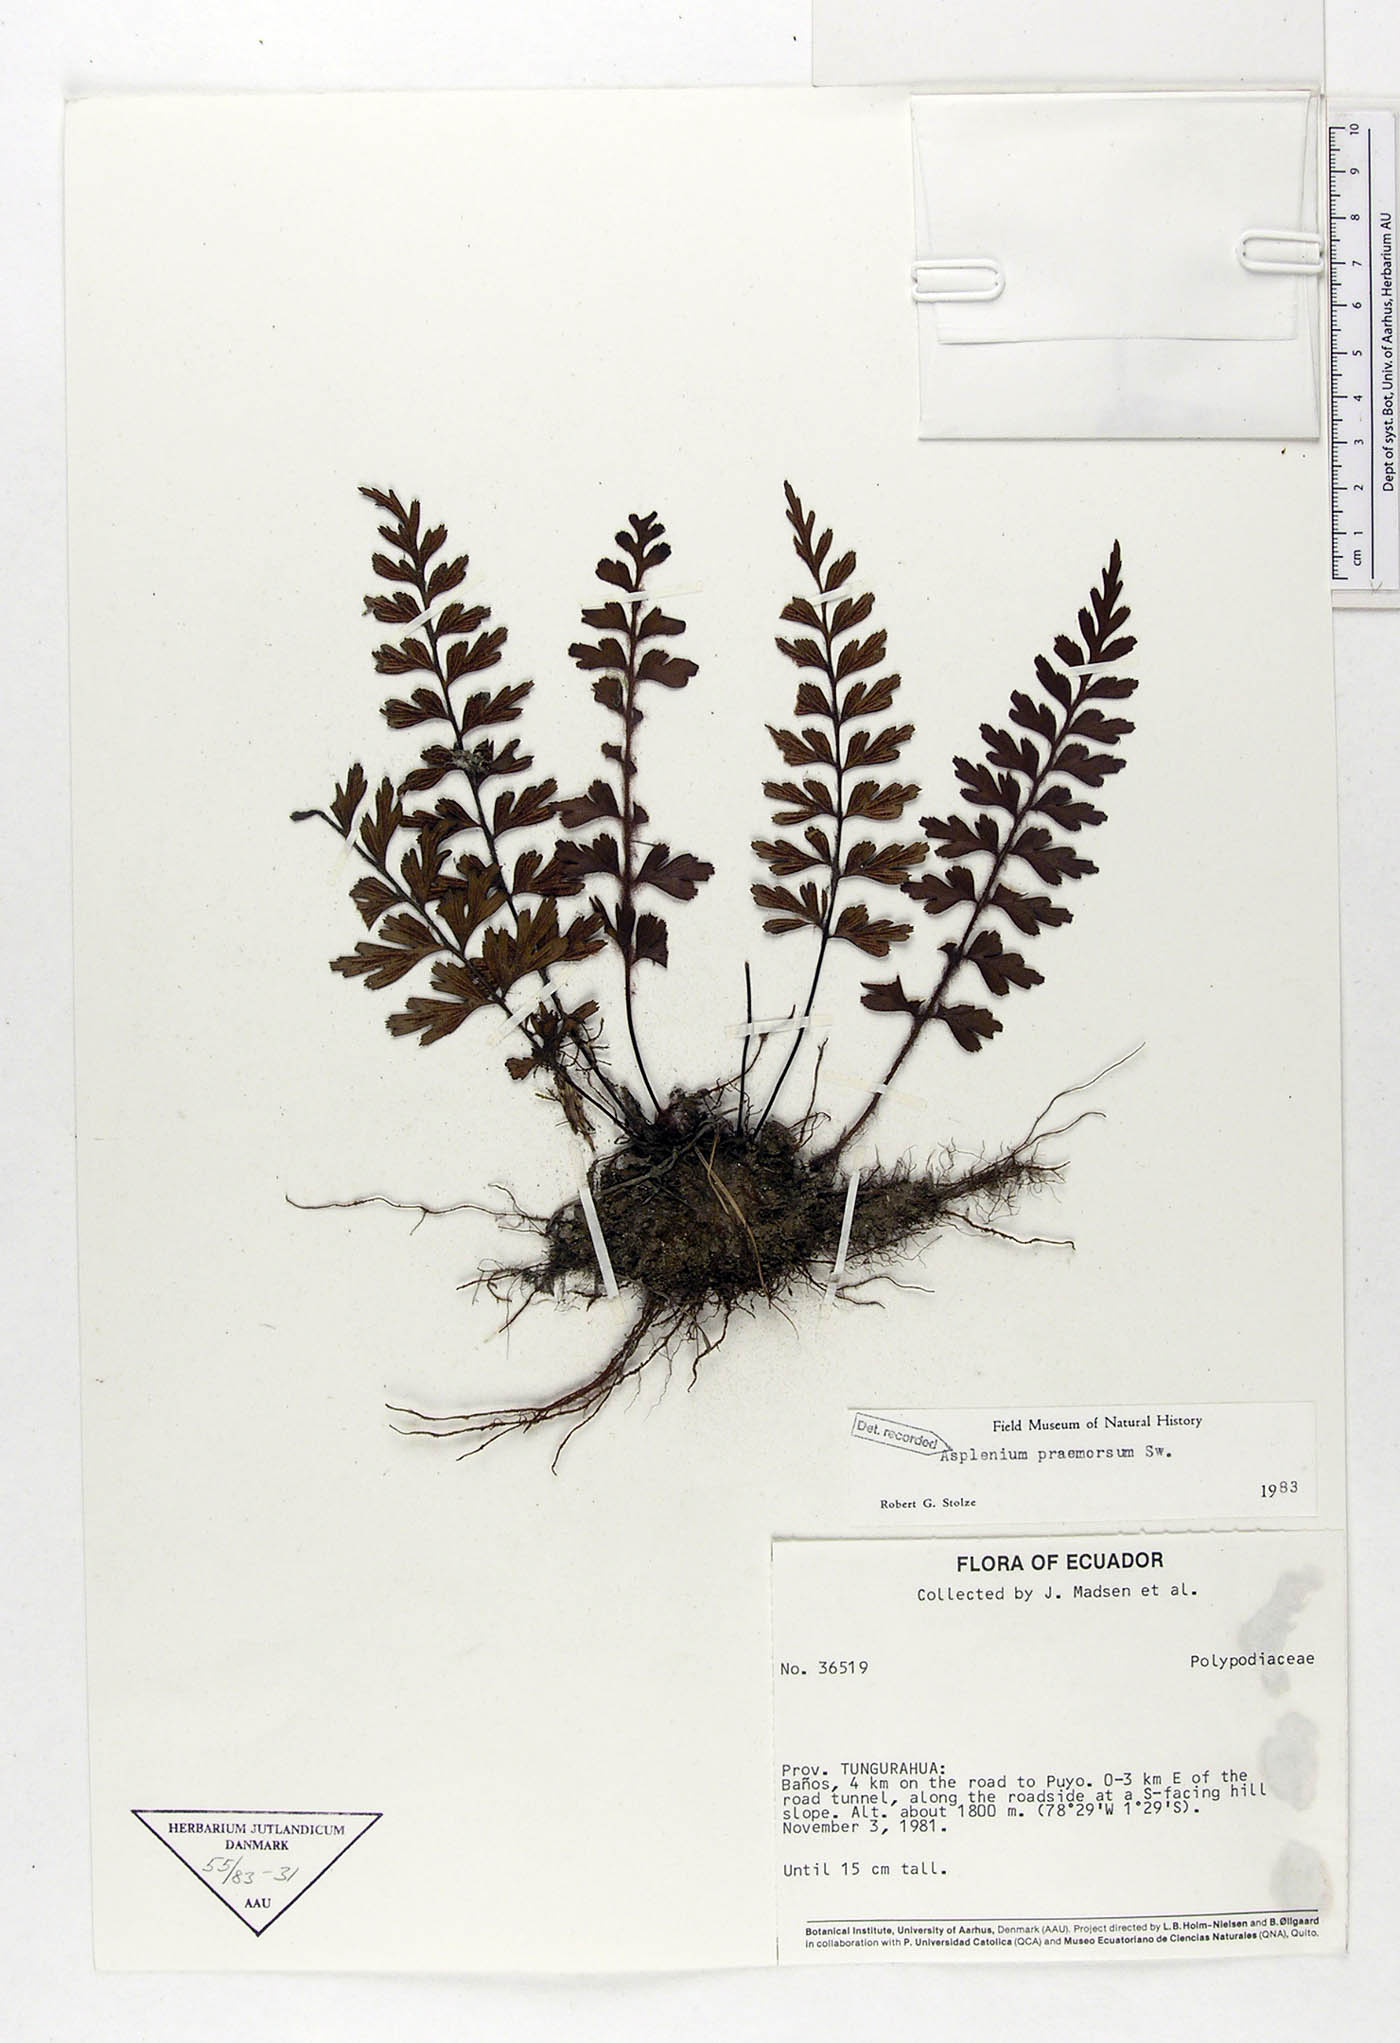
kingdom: Plantae
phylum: Tracheophyta
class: Polypodiopsida
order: Polypodiales
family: Aspleniaceae
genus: Asplenium
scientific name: Asplenium praemorsum
